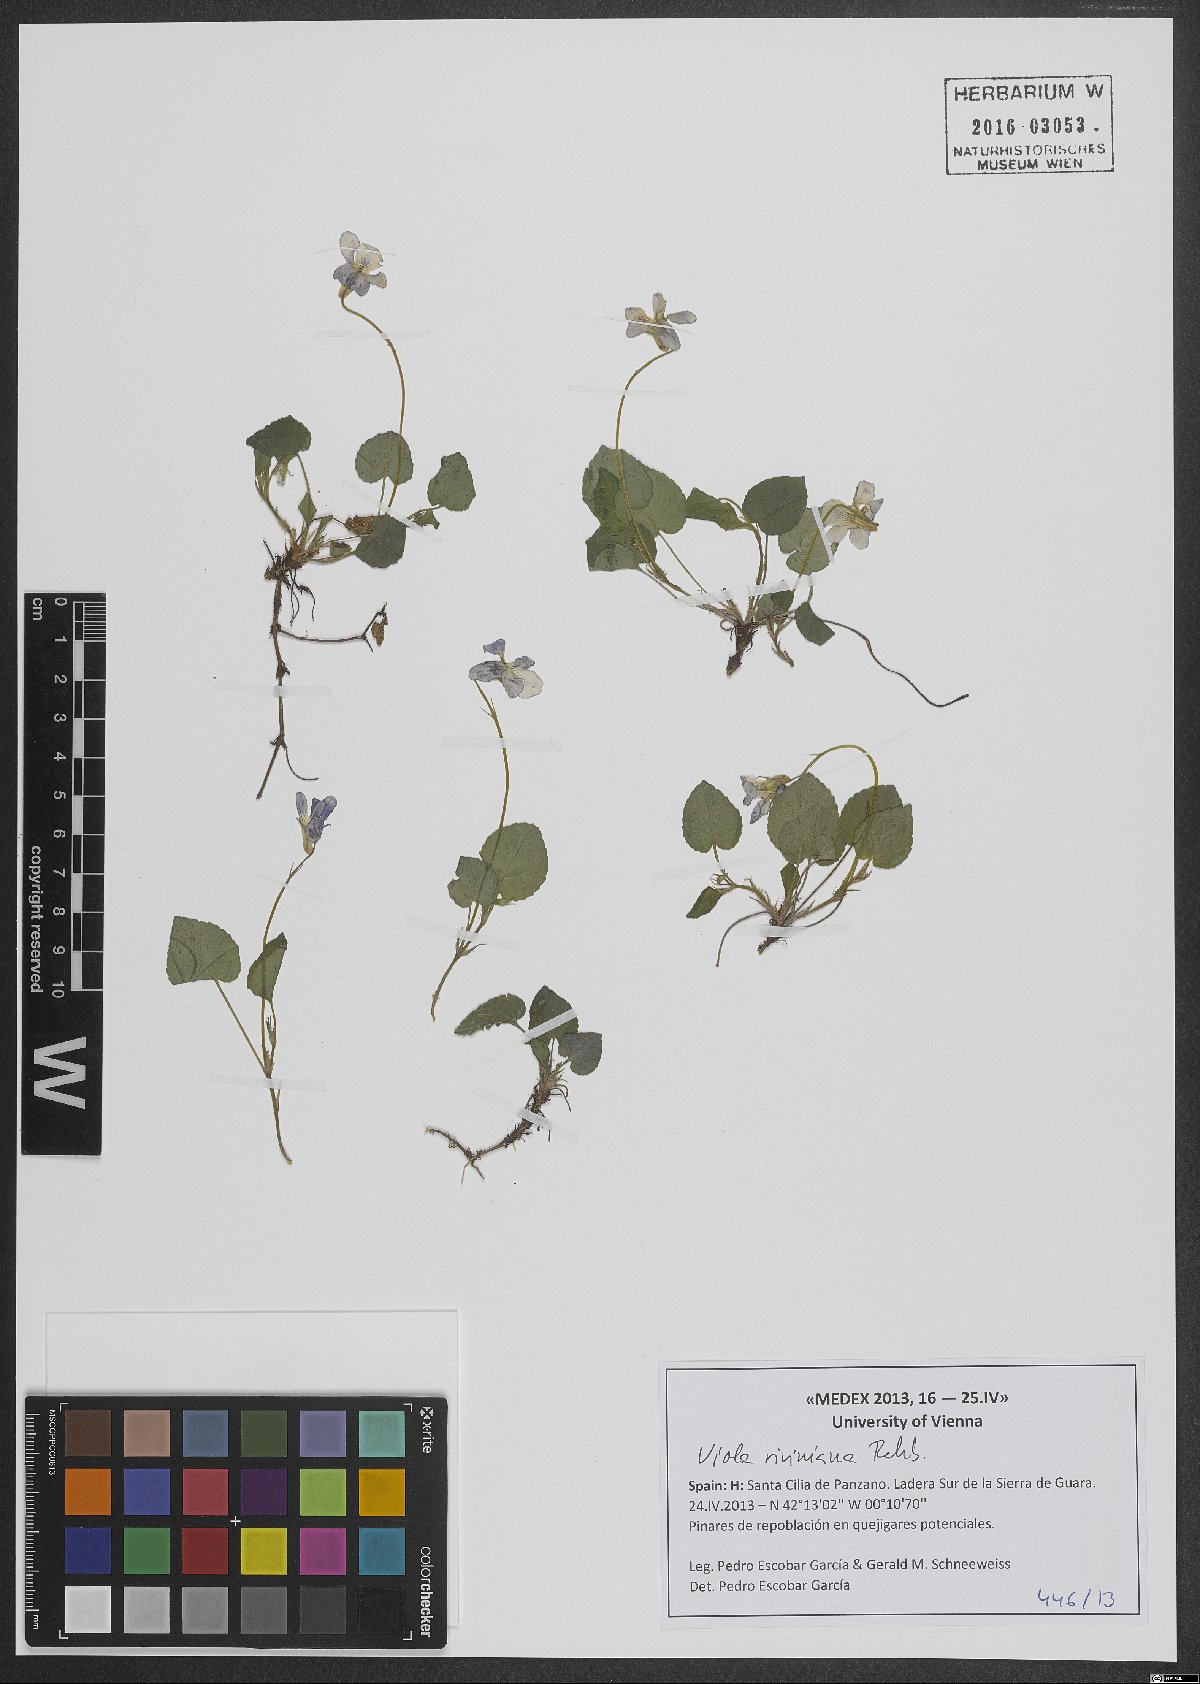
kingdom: Plantae
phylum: Tracheophyta
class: Magnoliopsida
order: Malpighiales
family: Violaceae
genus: Viola
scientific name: Viola riviniana
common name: Common dog-violet
